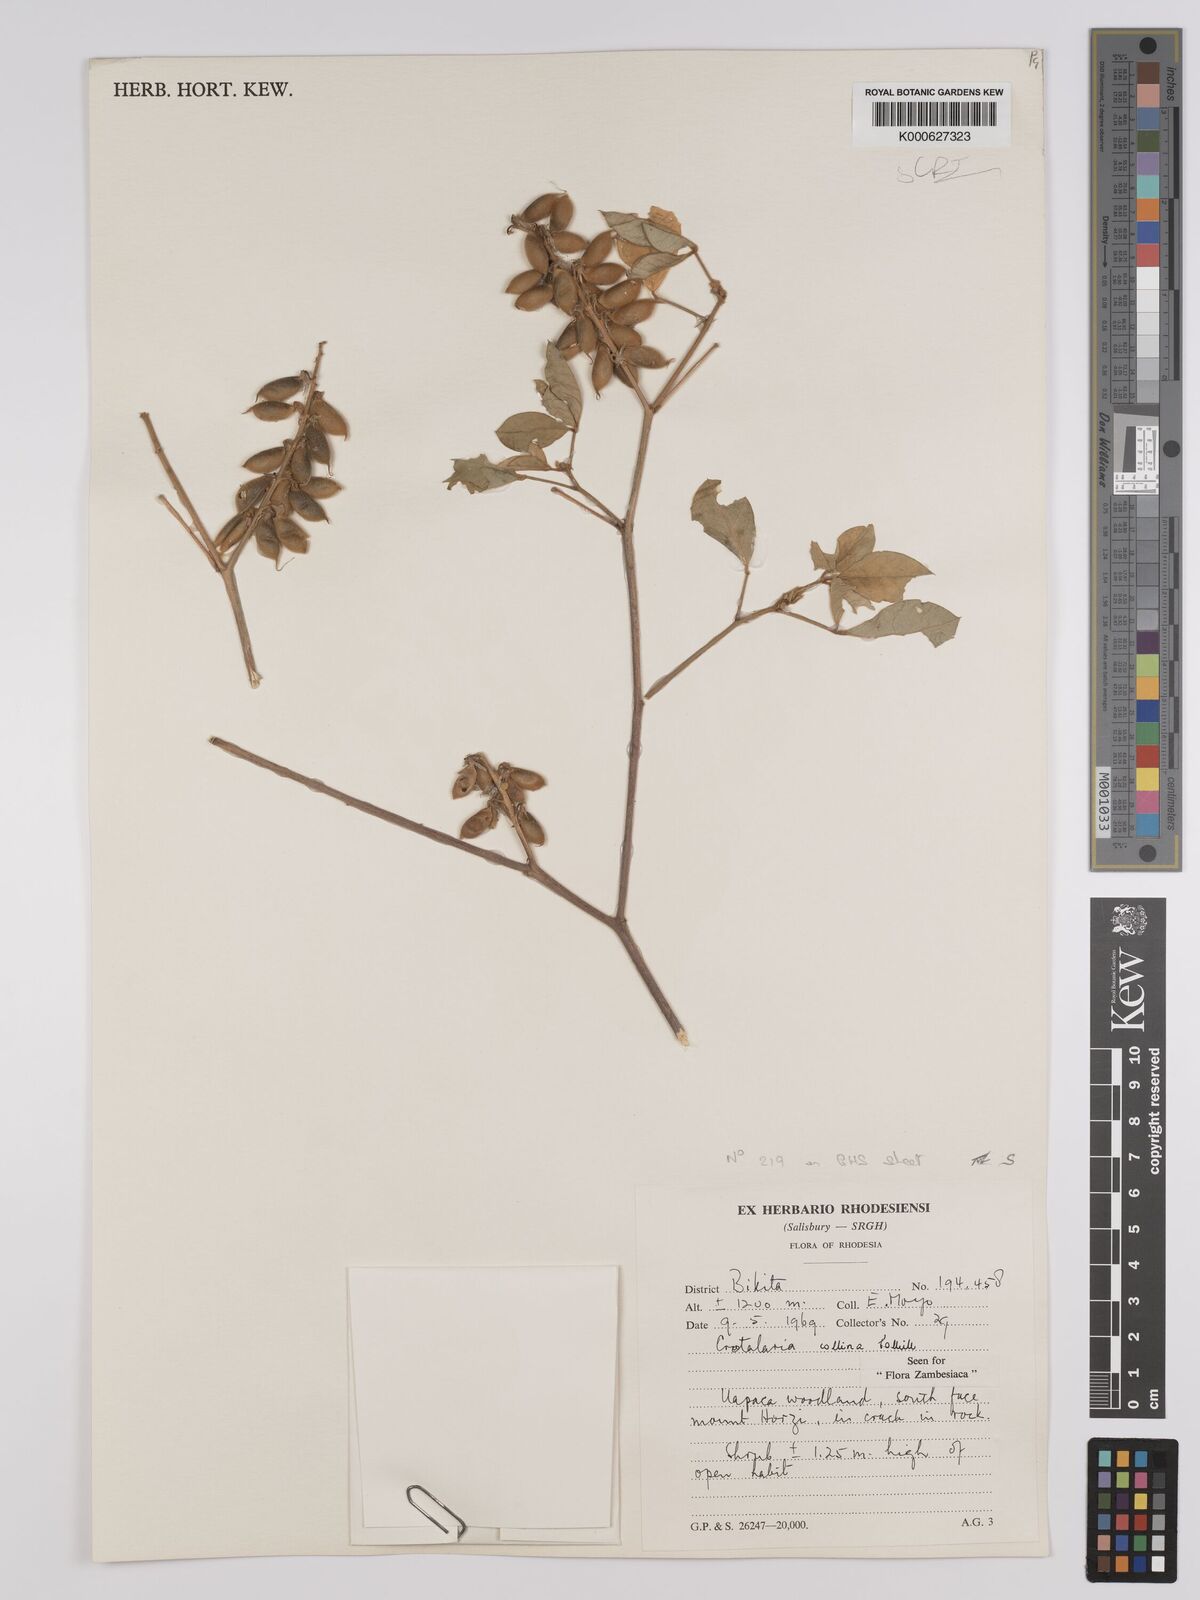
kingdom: Plantae
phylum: Tracheophyta
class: Magnoliopsida
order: Fabales
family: Fabaceae
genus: Crotalaria
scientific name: Crotalaria collina
